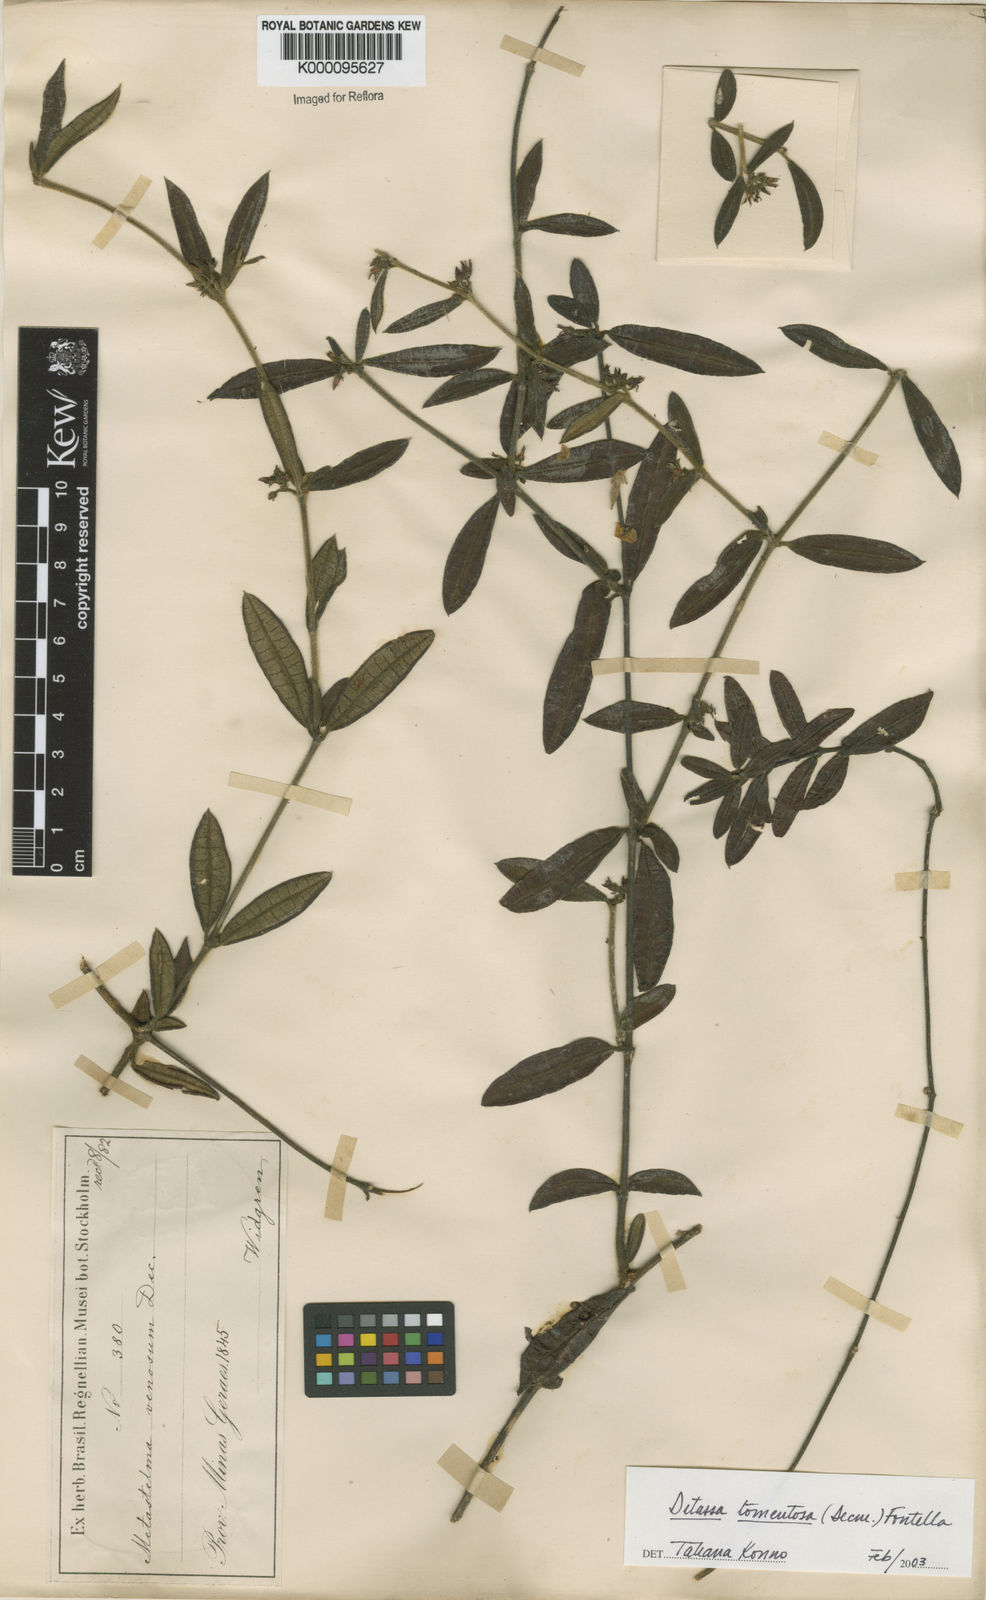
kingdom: Plantae
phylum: Tracheophyta
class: Magnoliopsida
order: Gentianales
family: Apocynaceae
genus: Ditassa
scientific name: Ditassa tomentosa
